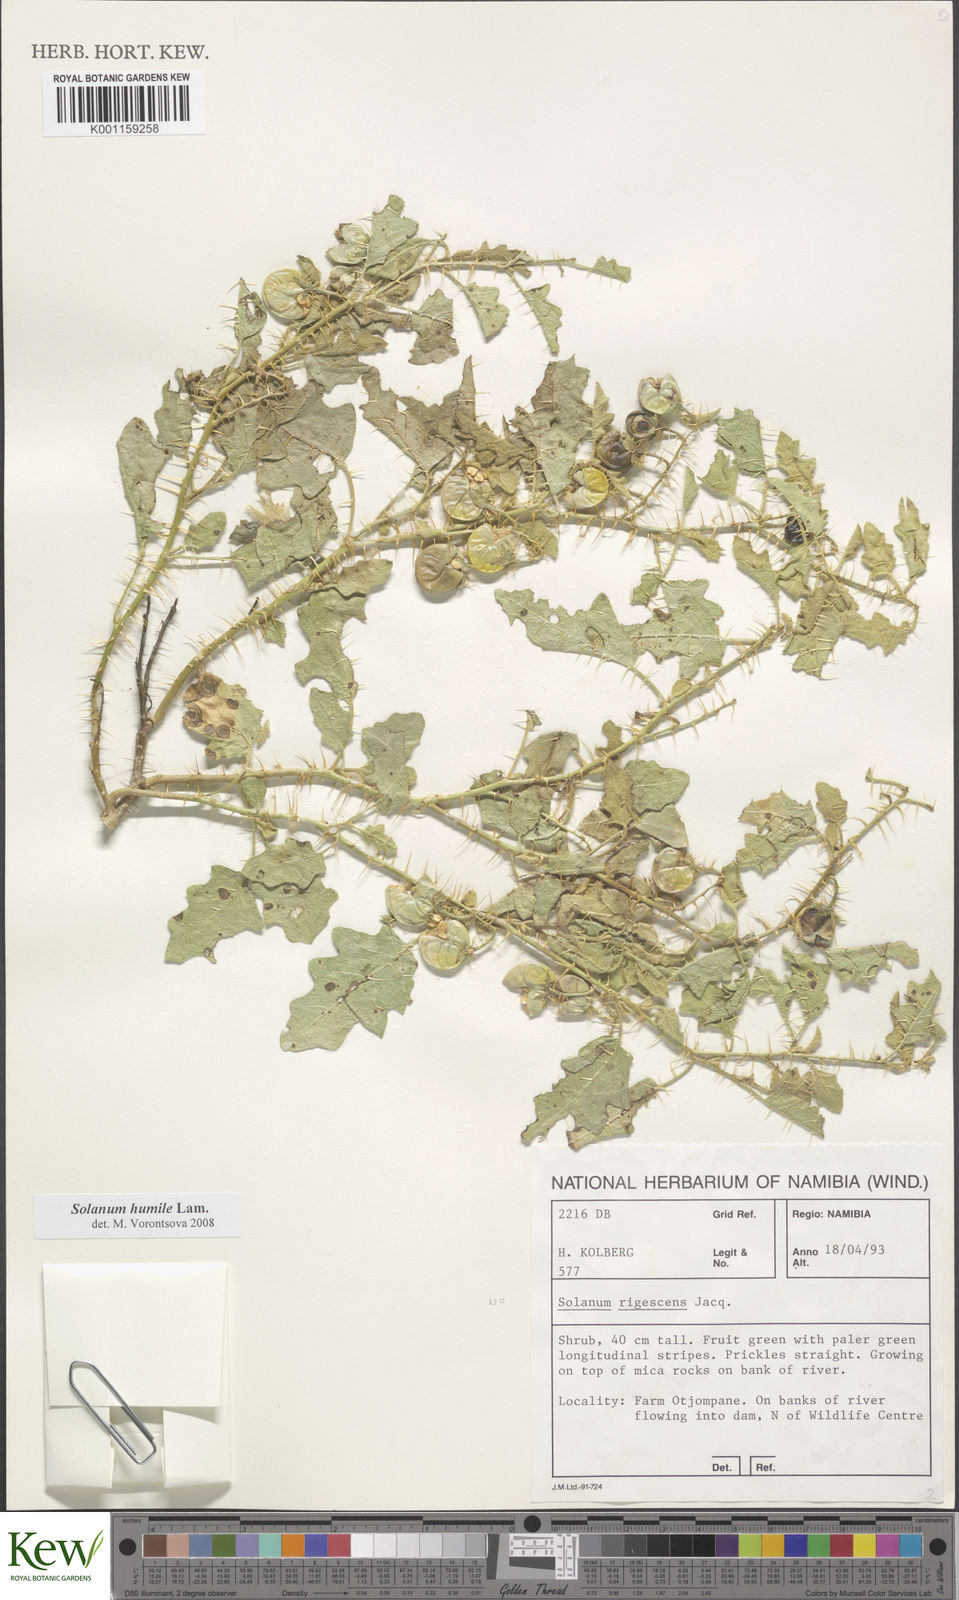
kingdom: Plantae
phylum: Tracheophyta
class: Magnoliopsida
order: Solanales
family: Solanaceae
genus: Solanum
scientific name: Solanum humile
